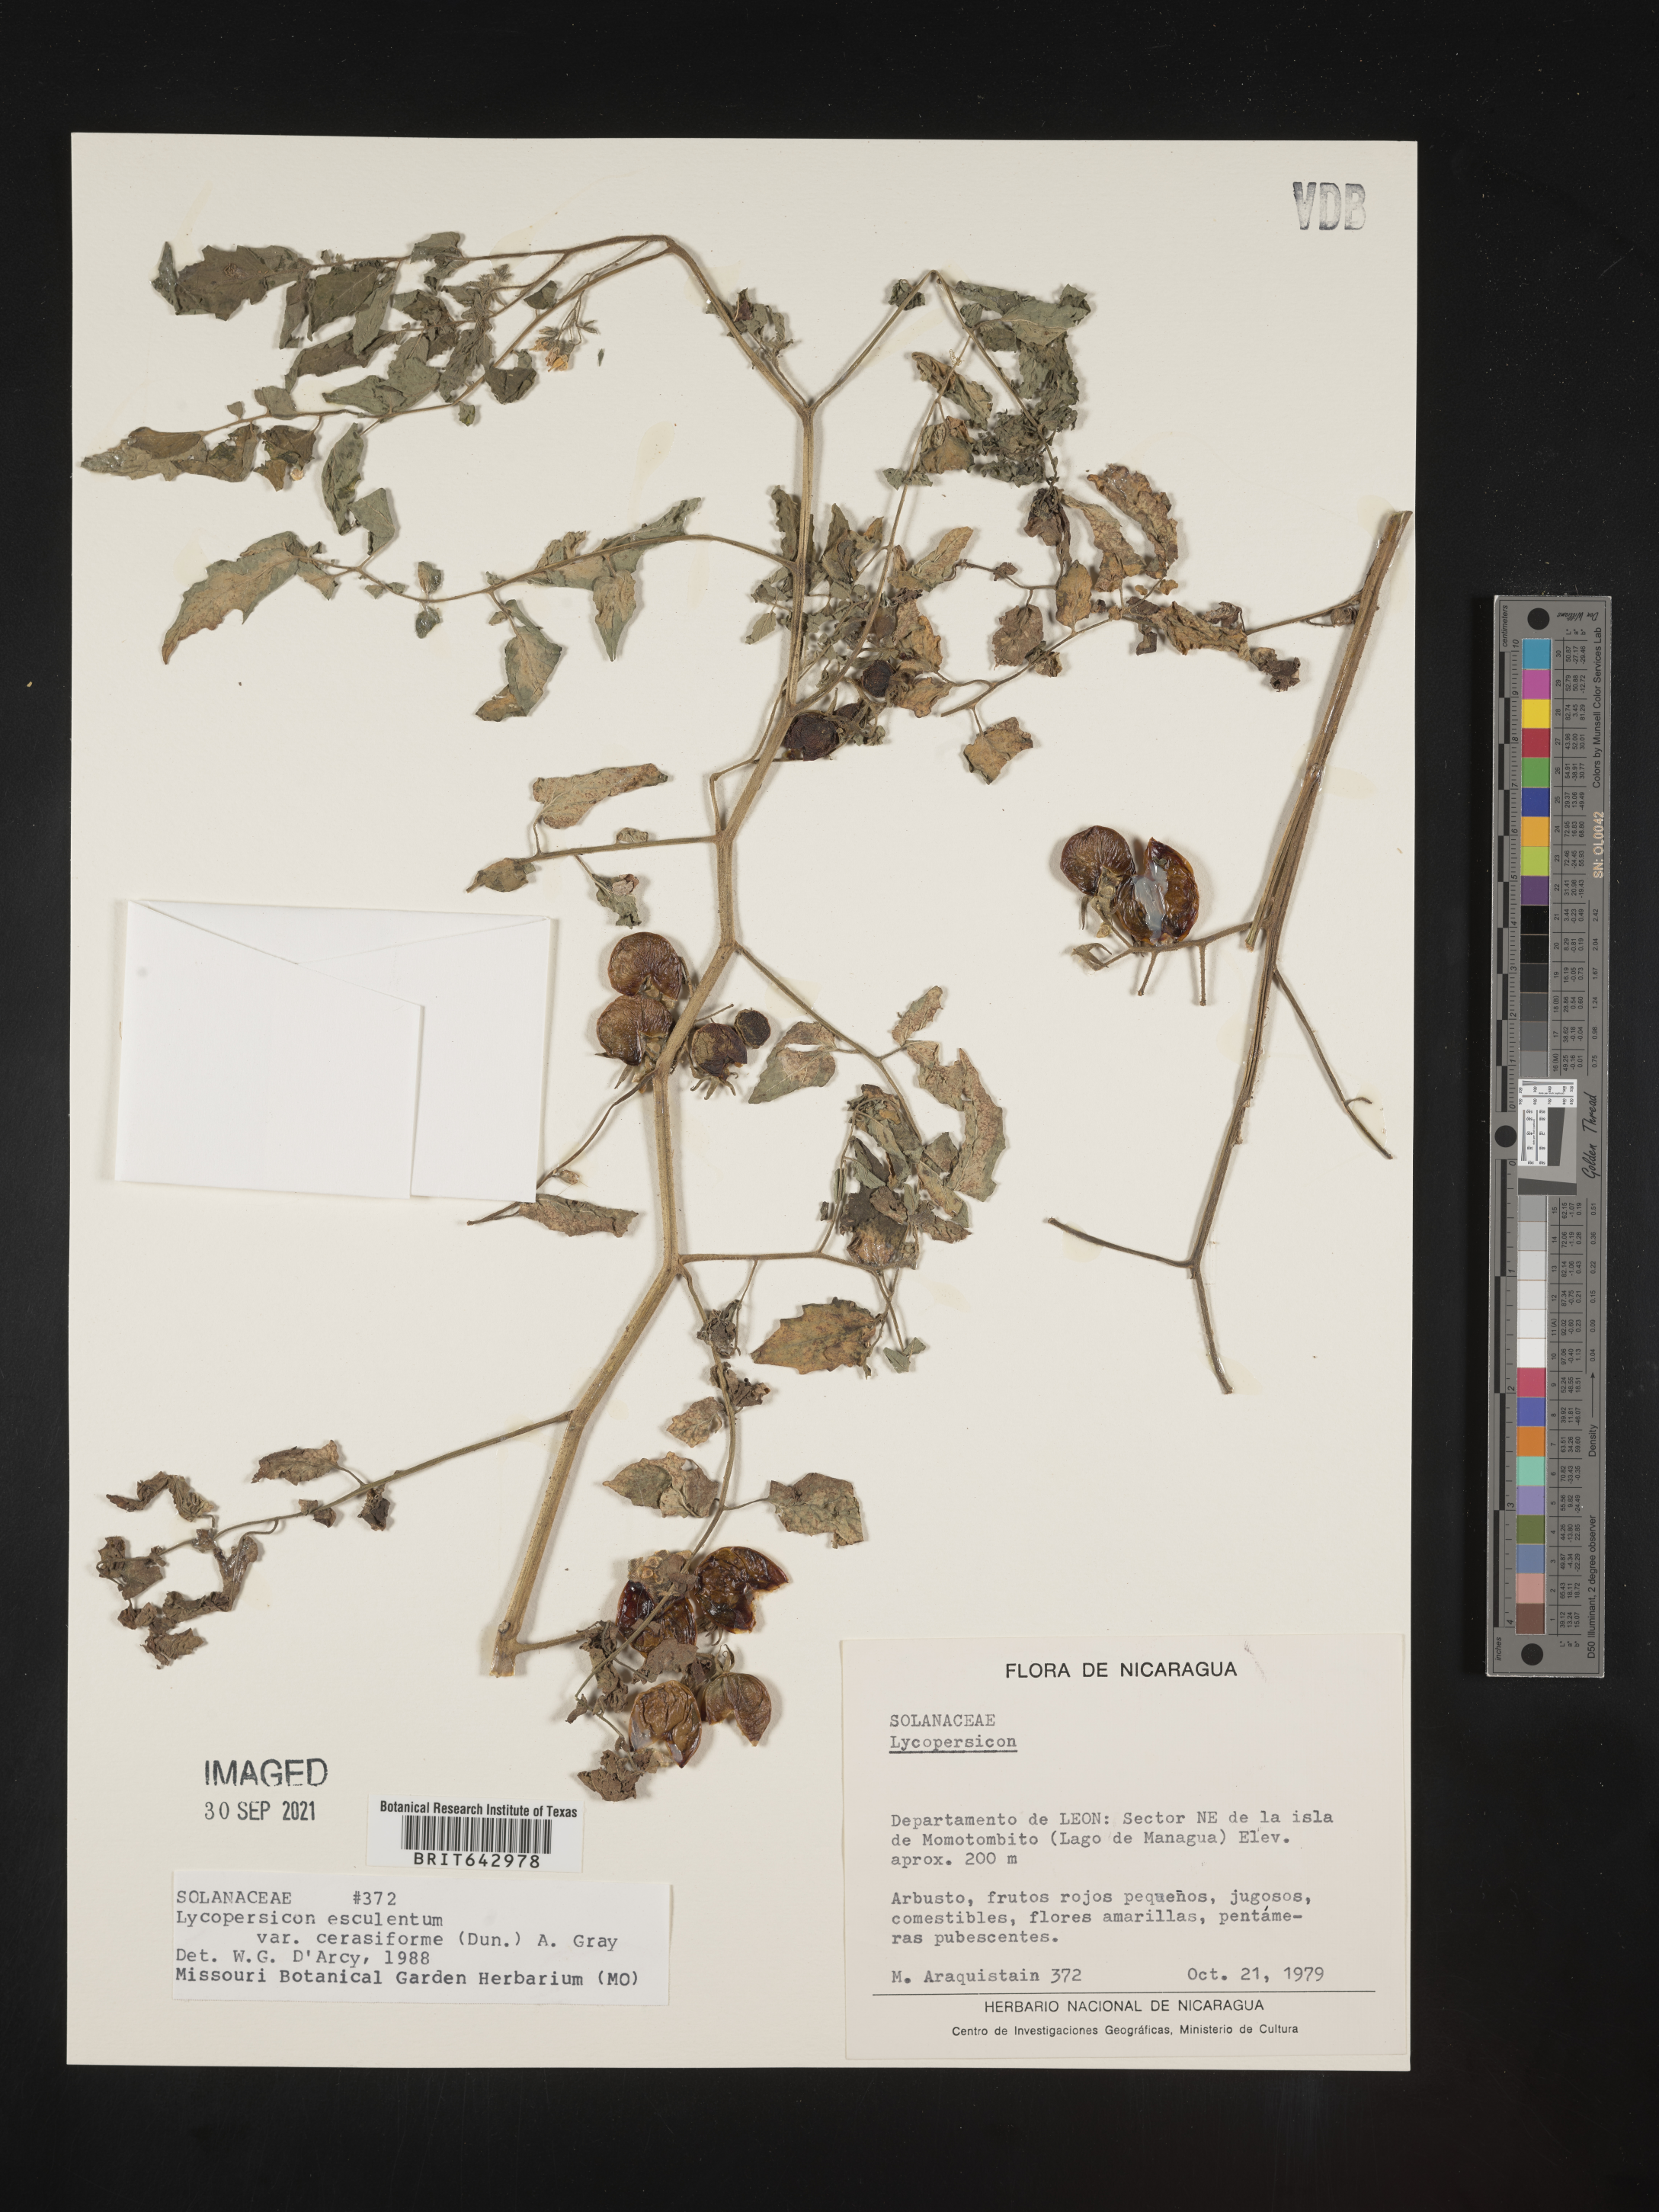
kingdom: Plantae
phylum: Tracheophyta
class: Magnoliopsida
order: Solanales
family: Solanaceae
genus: Lycopersicon
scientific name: Lycopersicon
